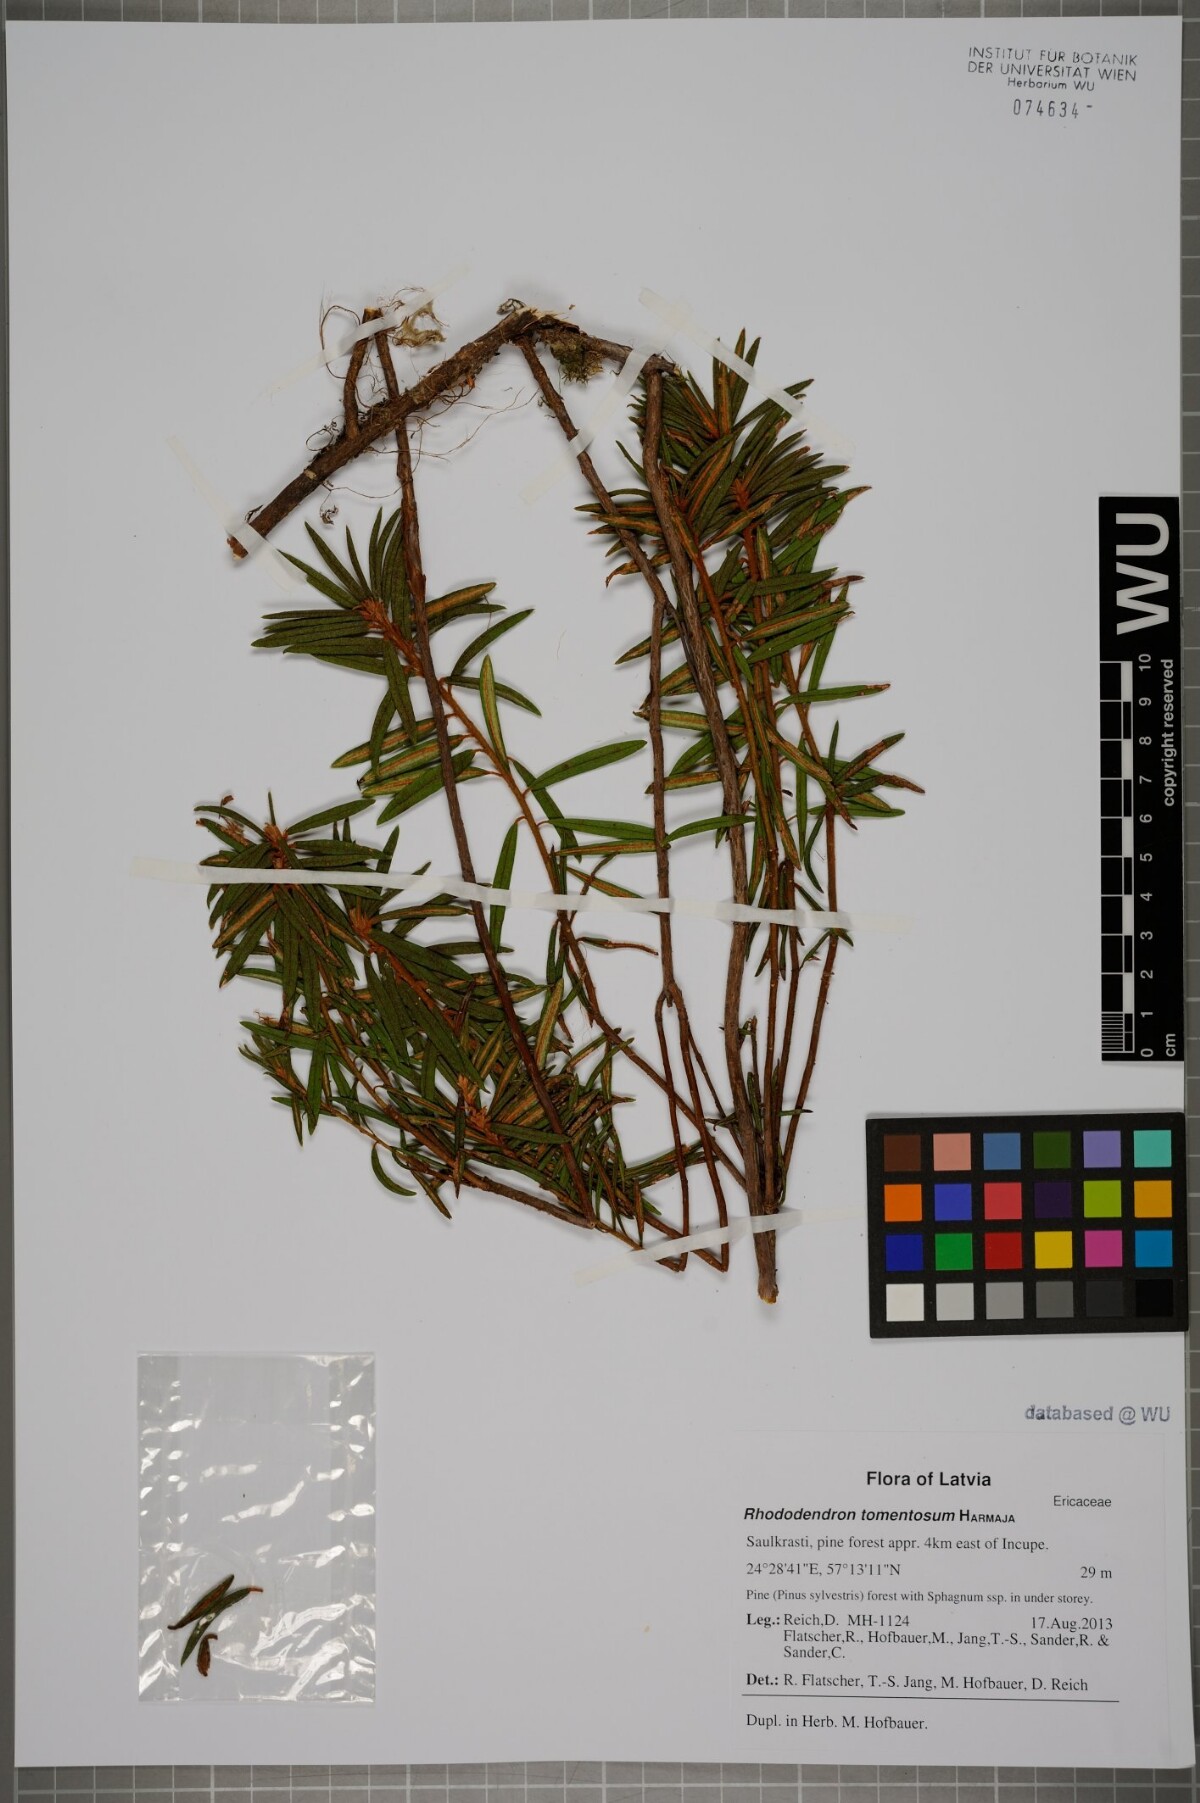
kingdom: Plantae
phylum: Tracheophyta
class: Magnoliopsida
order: Ericales
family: Ericaceae
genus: Rhododendron
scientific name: Rhododendron tomentosum
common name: Marsh labrador tea
